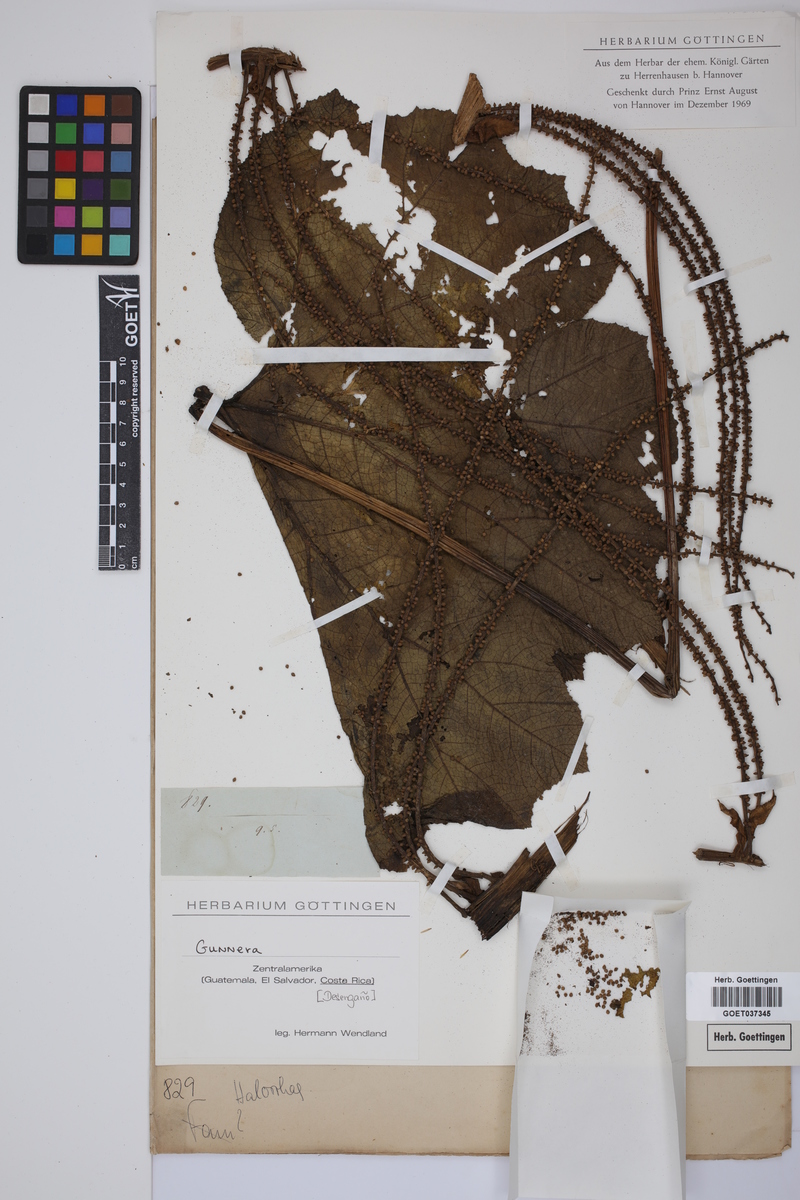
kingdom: Plantae
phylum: Tracheophyta
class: Magnoliopsida
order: Gunnerales
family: Gunneraceae
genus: Gunnera
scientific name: Gunnera
